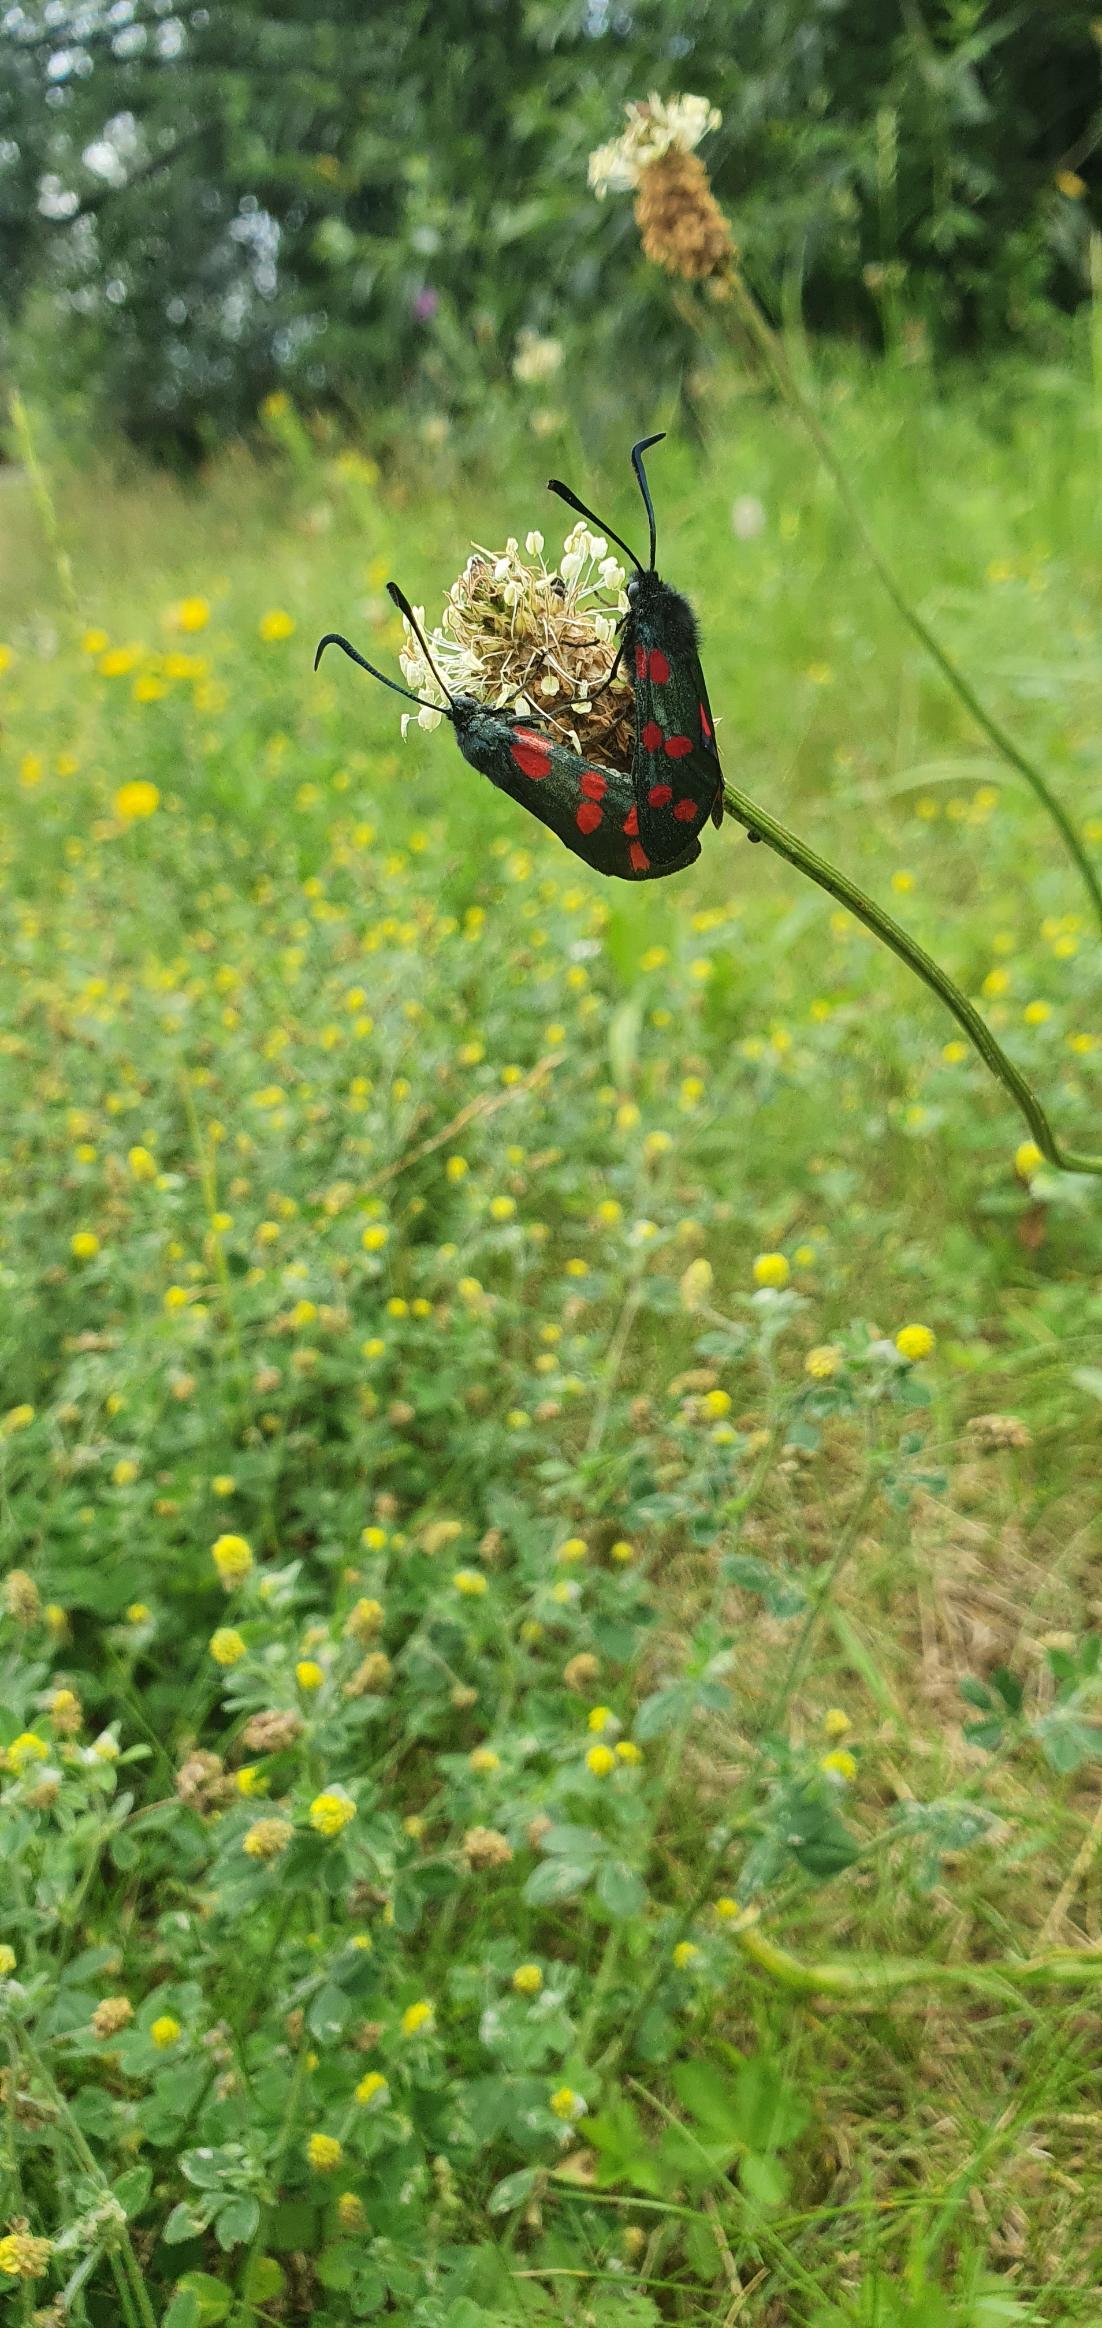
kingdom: Animalia
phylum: Arthropoda
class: Insecta
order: Lepidoptera
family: Zygaenidae
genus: Zygaena
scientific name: Zygaena filipendulae
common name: Seksplettet køllesværmer
